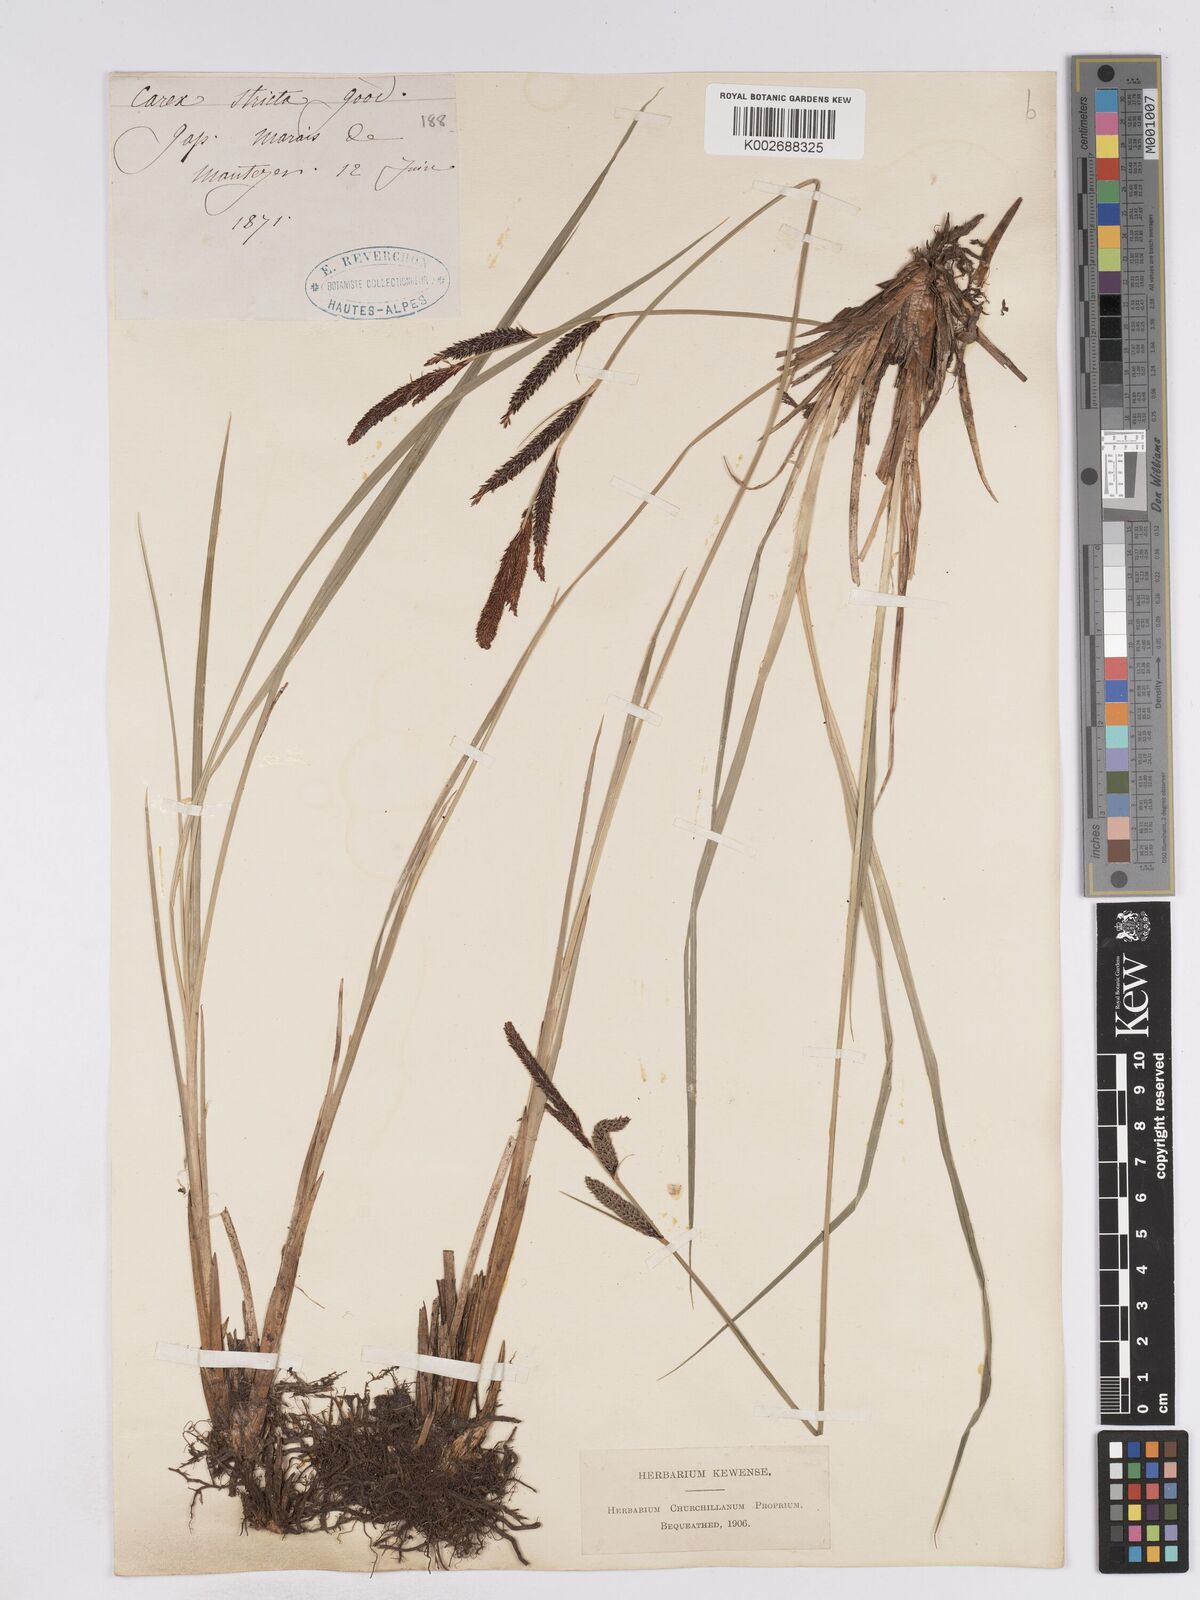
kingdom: Plantae
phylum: Tracheophyta
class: Liliopsida
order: Poales
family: Cyperaceae
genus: Carex
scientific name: Carex elata
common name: Tufted sedge
